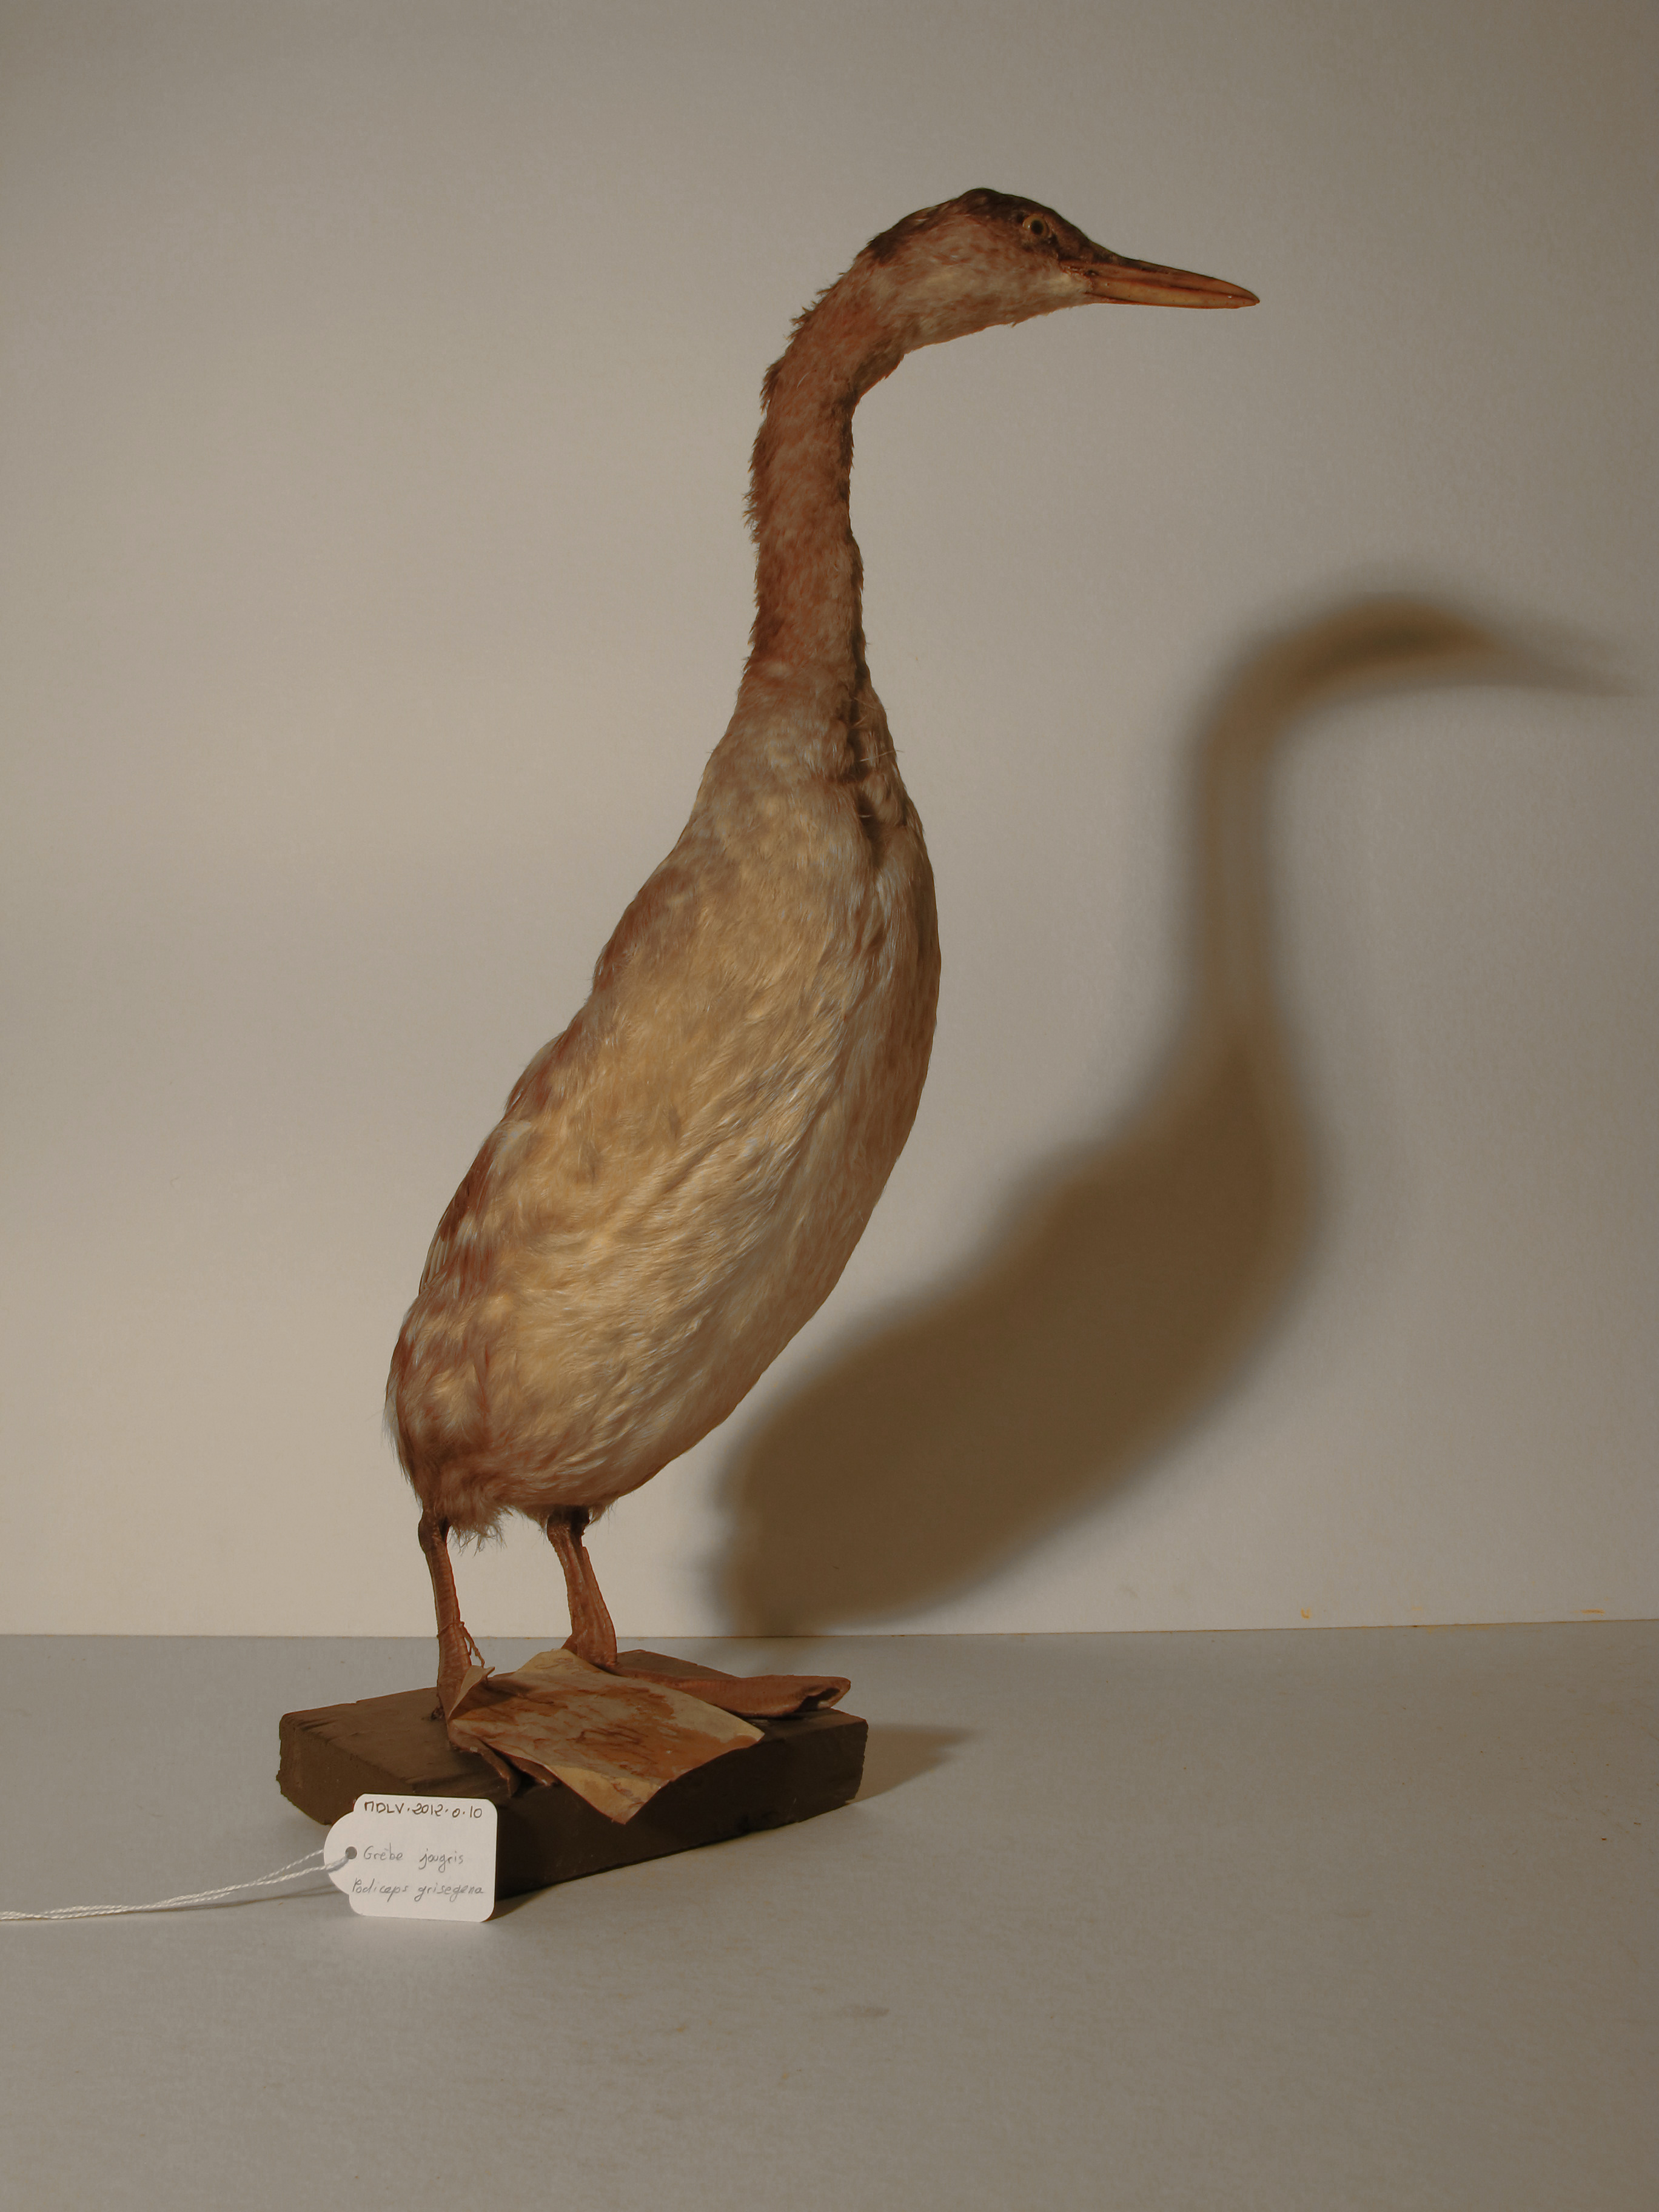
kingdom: Animalia
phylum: Chordata
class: Aves
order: Podicipediformes
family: Podicipedidae
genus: Podiceps
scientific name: Podiceps grisegena
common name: Red-necked Grebe
